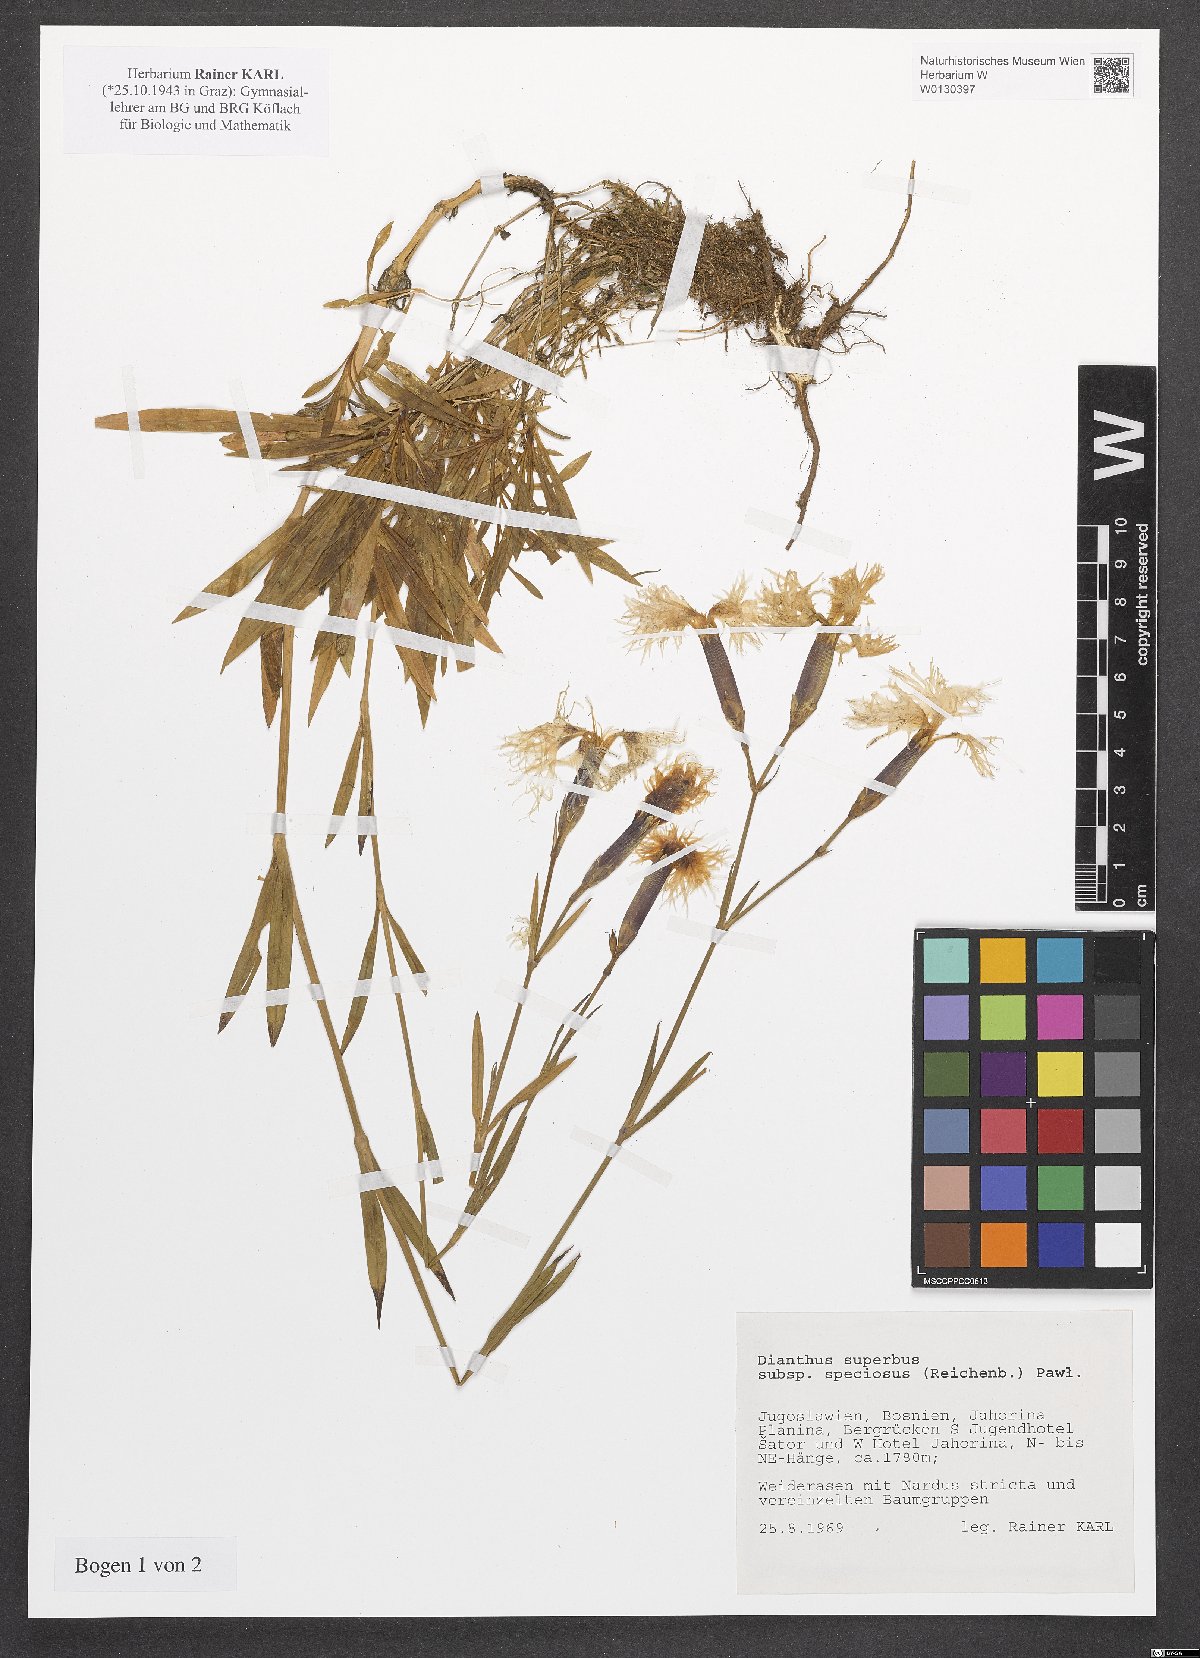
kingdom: Plantae
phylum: Tracheophyta
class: Magnoliopsida
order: Caryophyllales
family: Caryophyllaceae
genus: Dianthus
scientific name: Dianthus superbus
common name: Fringed pink
